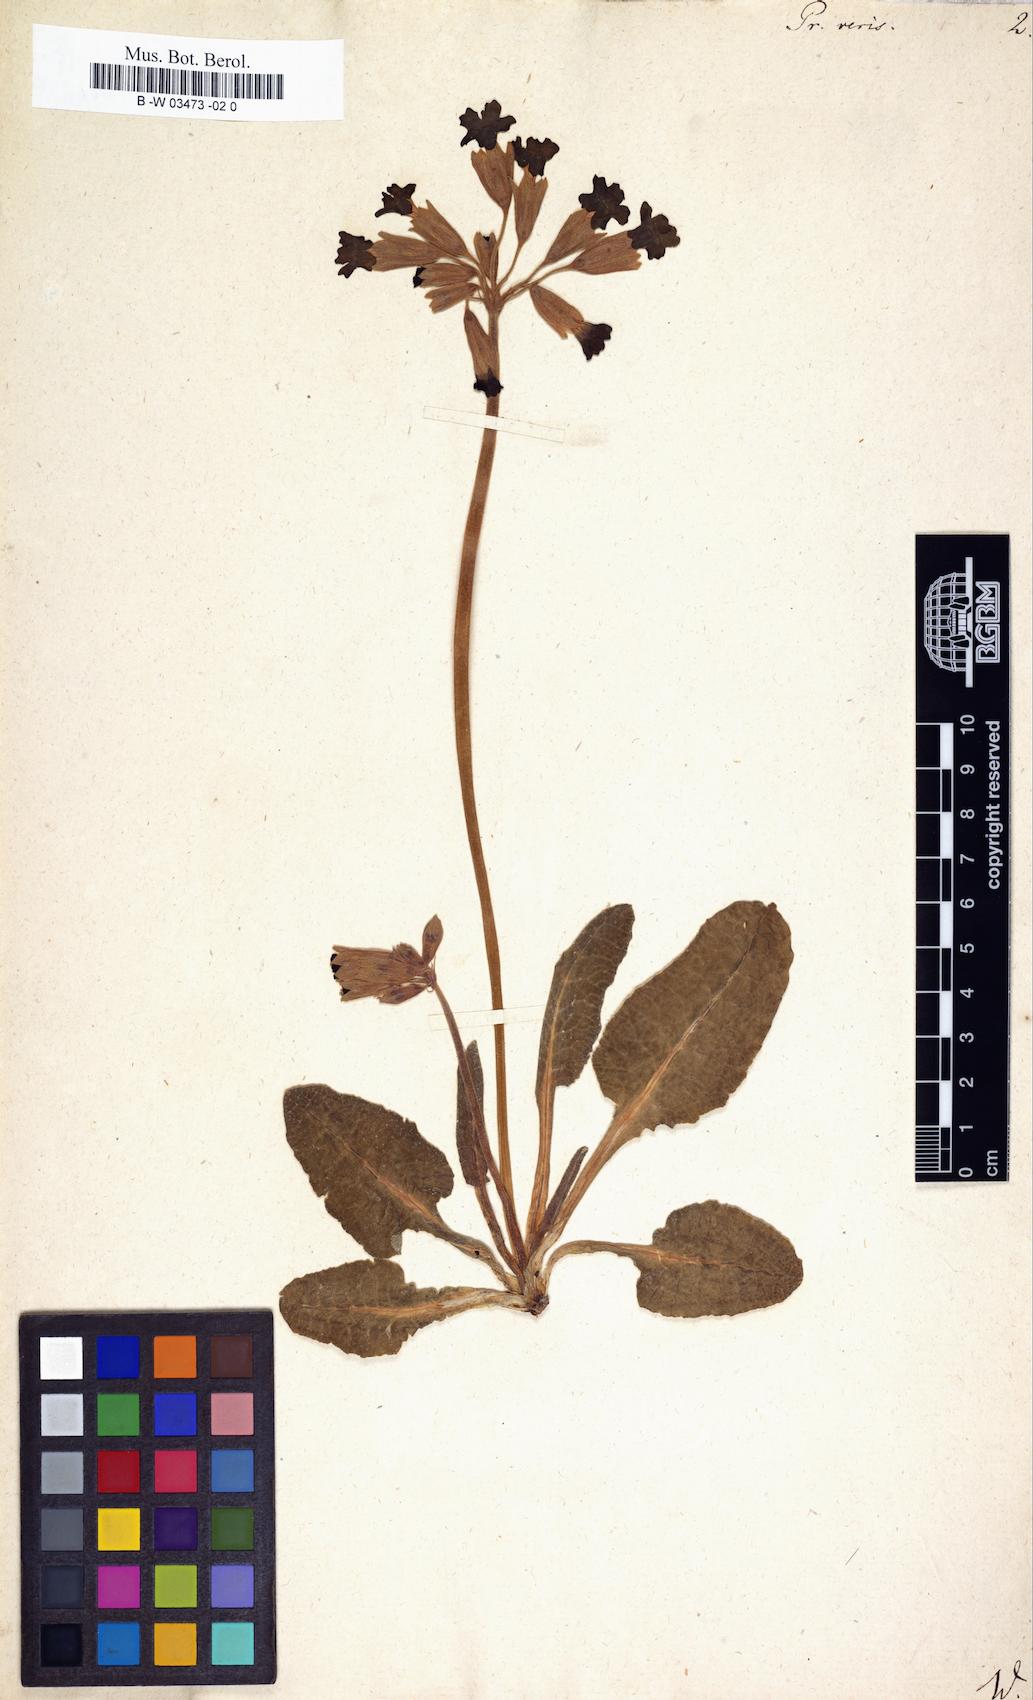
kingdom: Plantae
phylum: Tracheophyta
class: Magnoliopsida
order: Ericales
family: Primulaceae
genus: Primula
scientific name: Primula veris
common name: Cowslip
